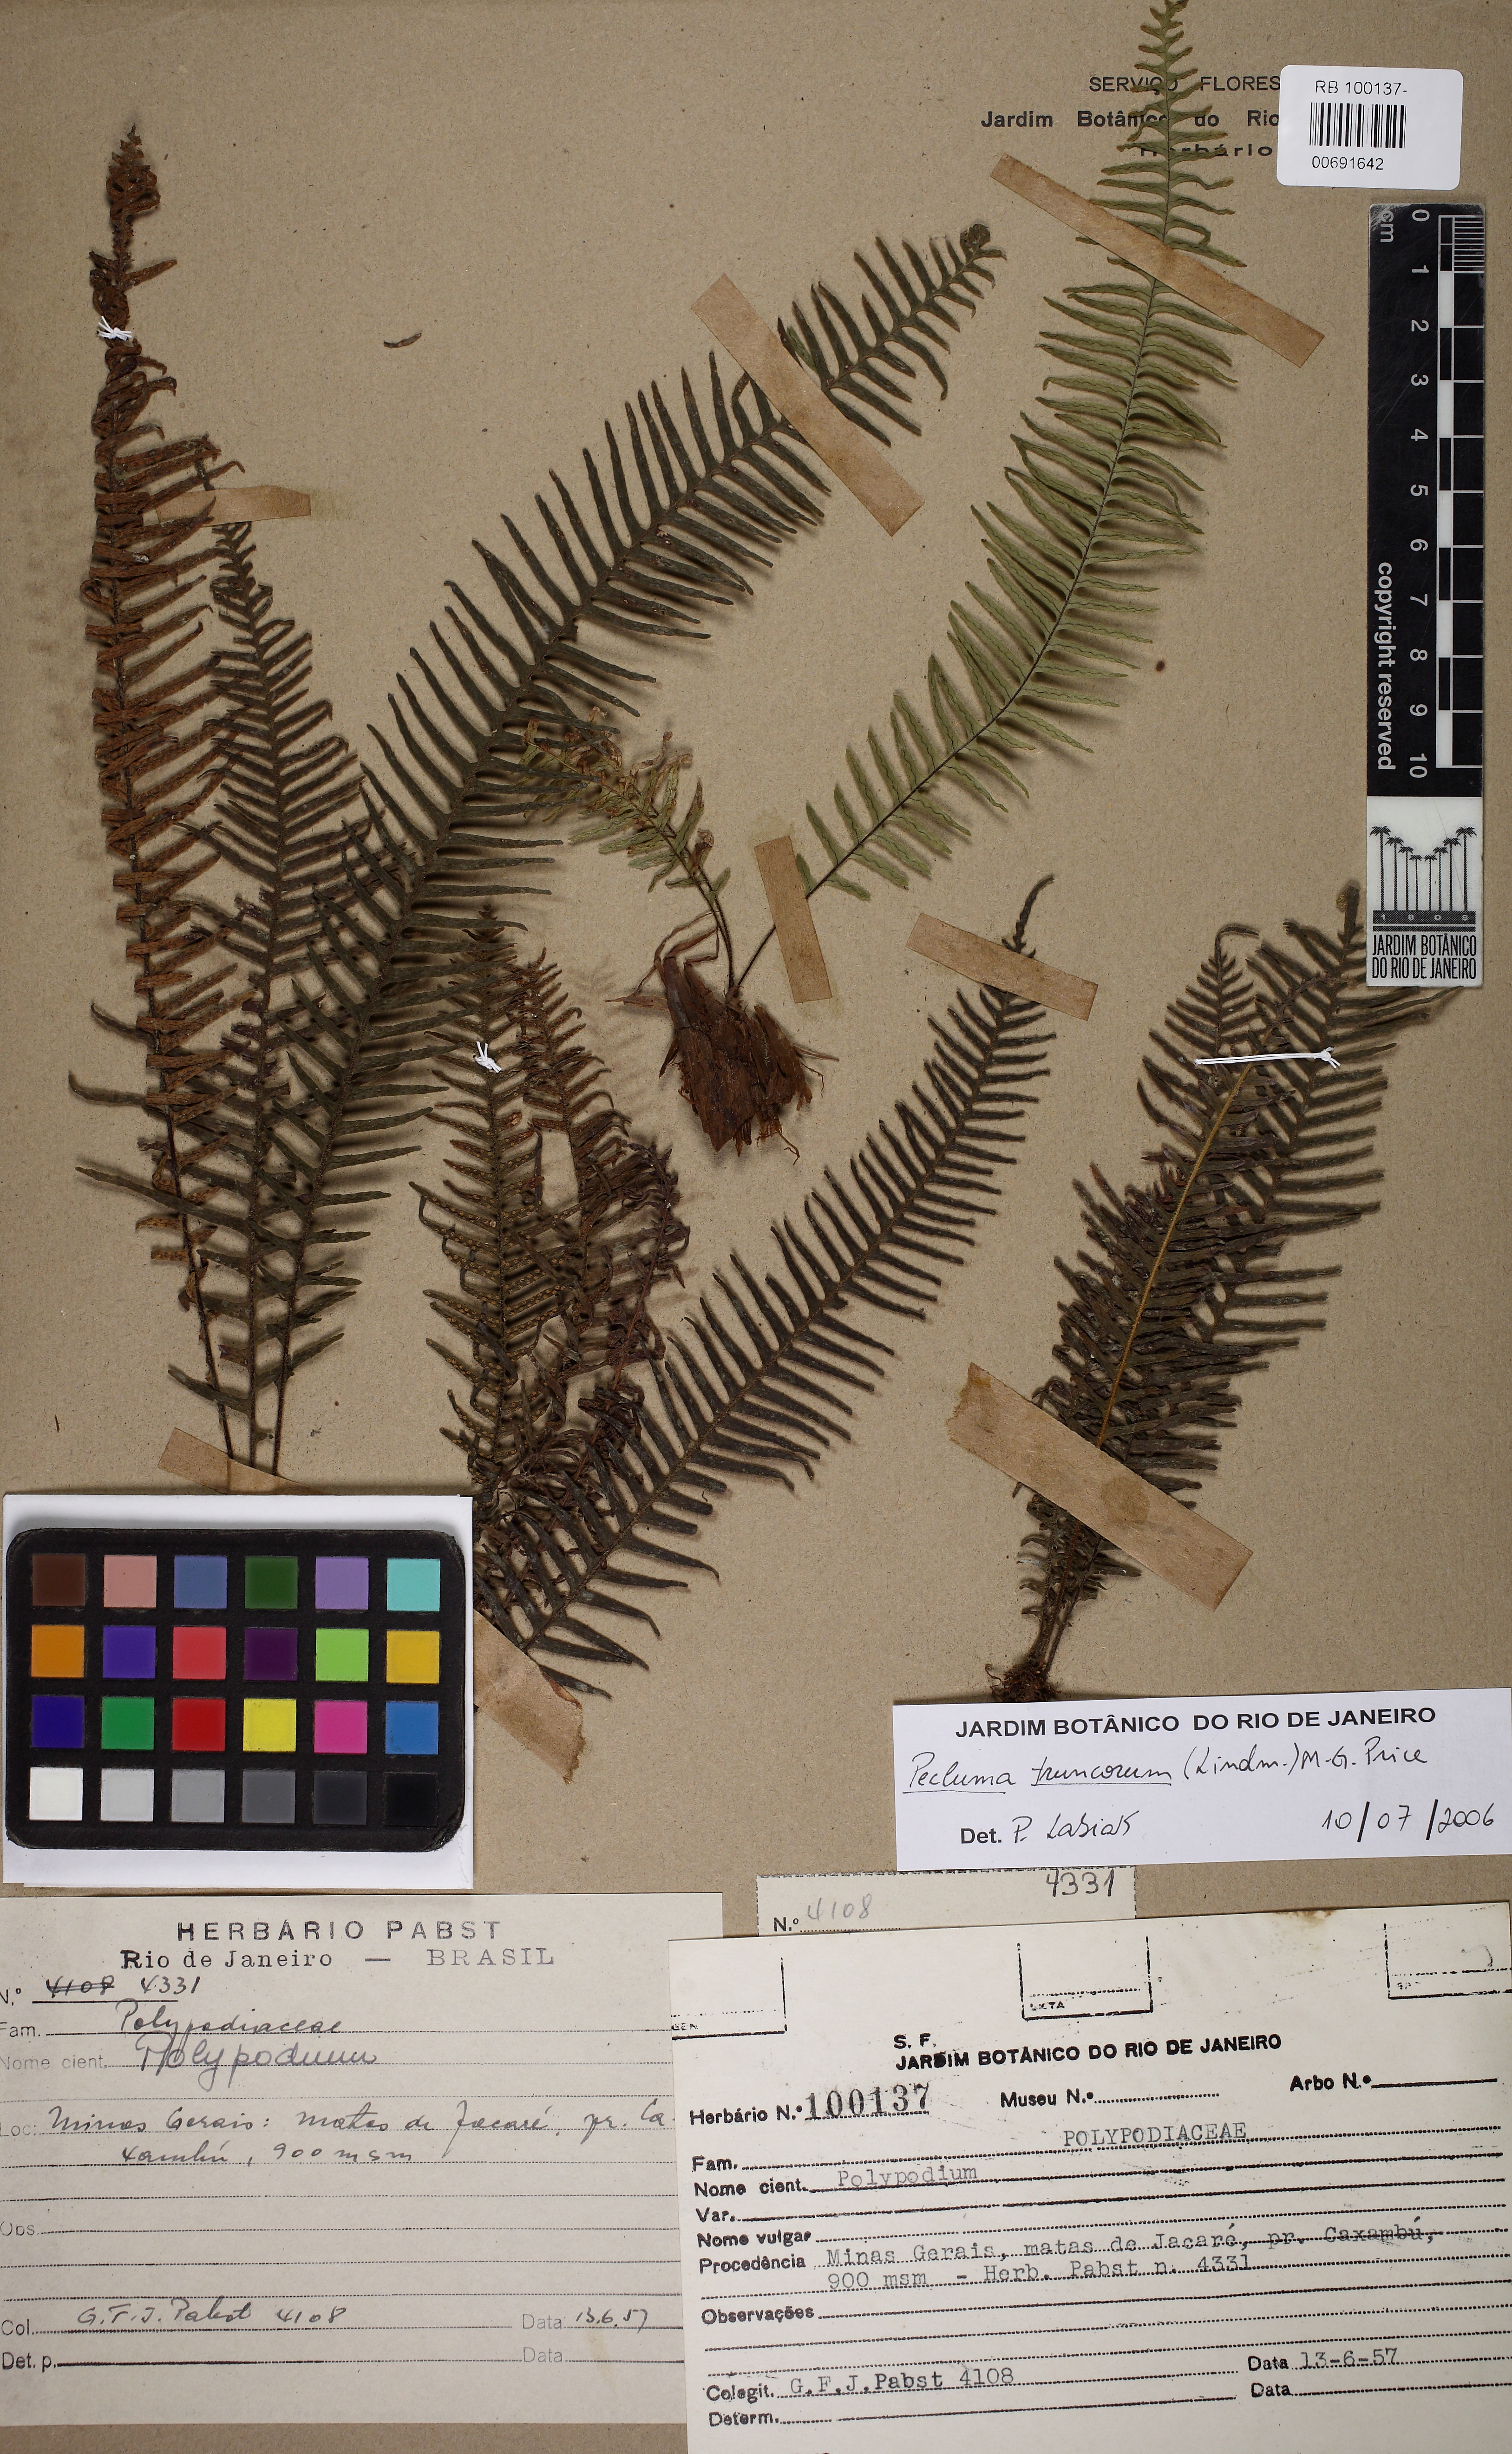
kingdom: Plantae
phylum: Tracheophyta
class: Polypodiopsida
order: Polypodiales
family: Polypodiaceae
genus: Pecluma
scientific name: Pecluma truncorum
